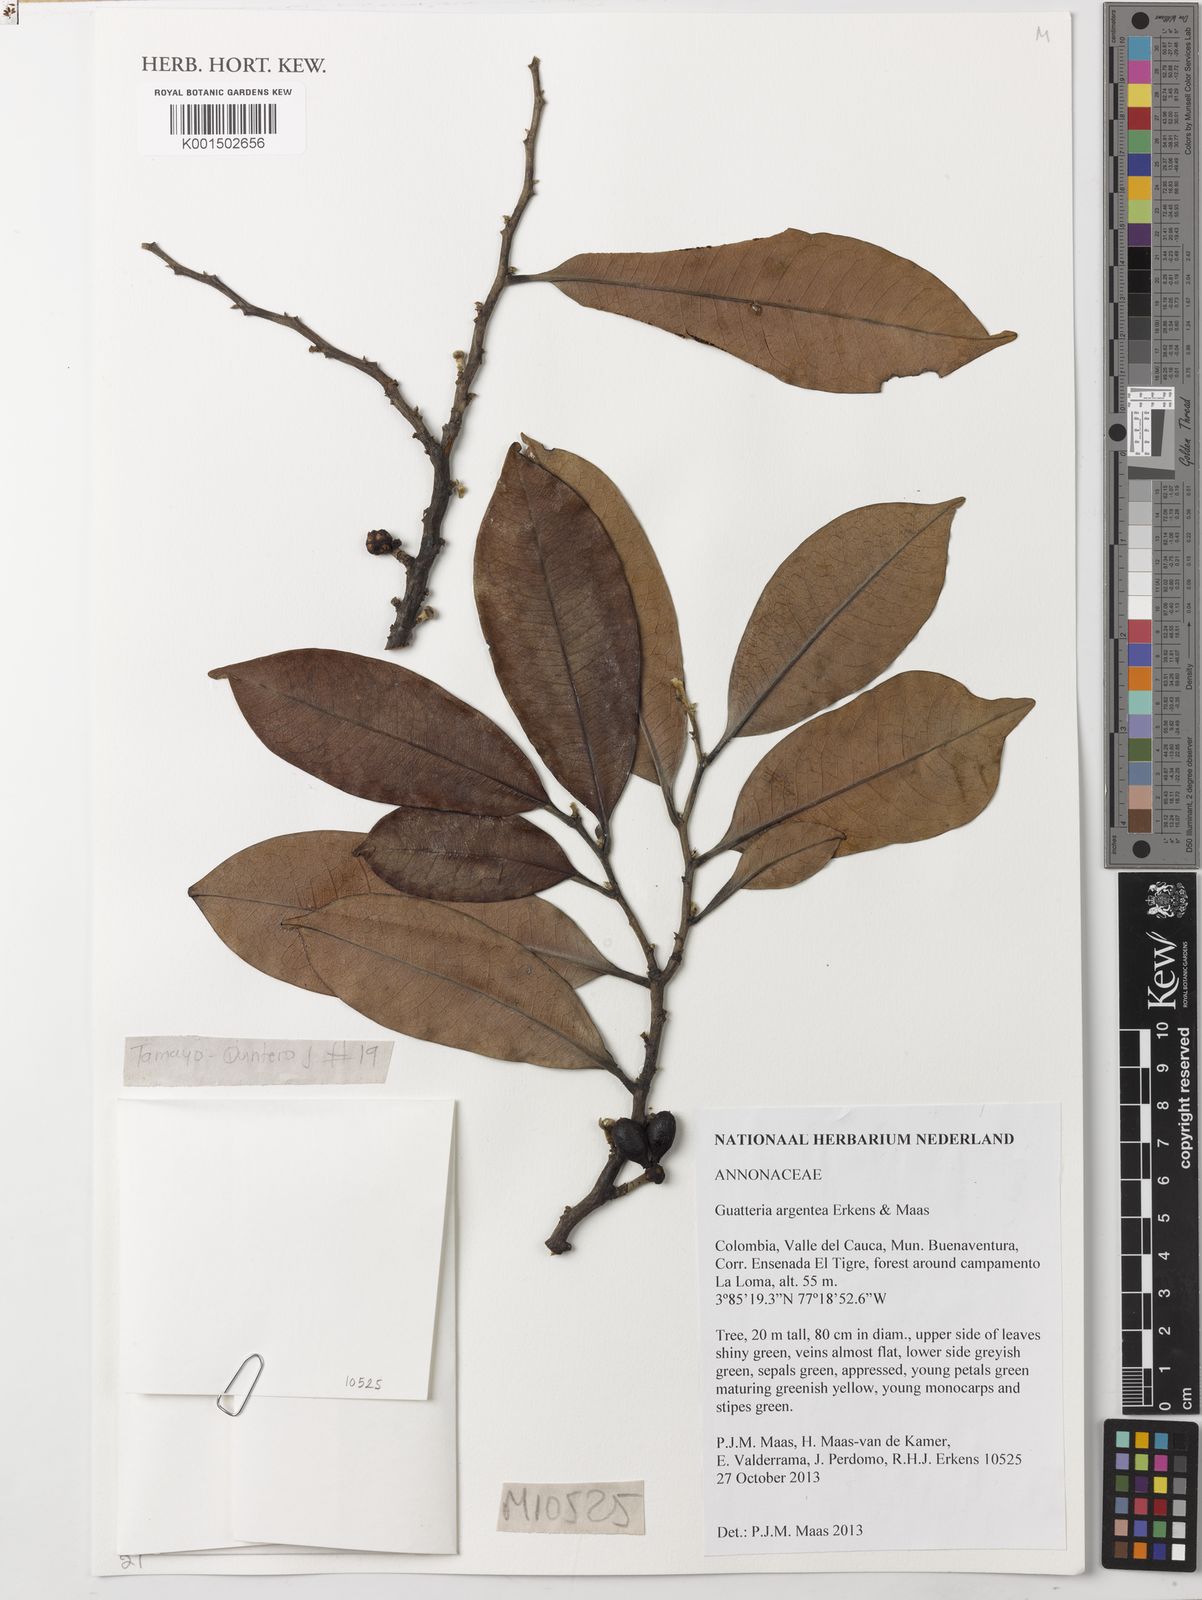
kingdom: Plantae
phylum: Tracheophyta
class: Magnoliopsida
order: Magnoliales
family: Annonaceae
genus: Guatteria
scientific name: Guatteria argentea
